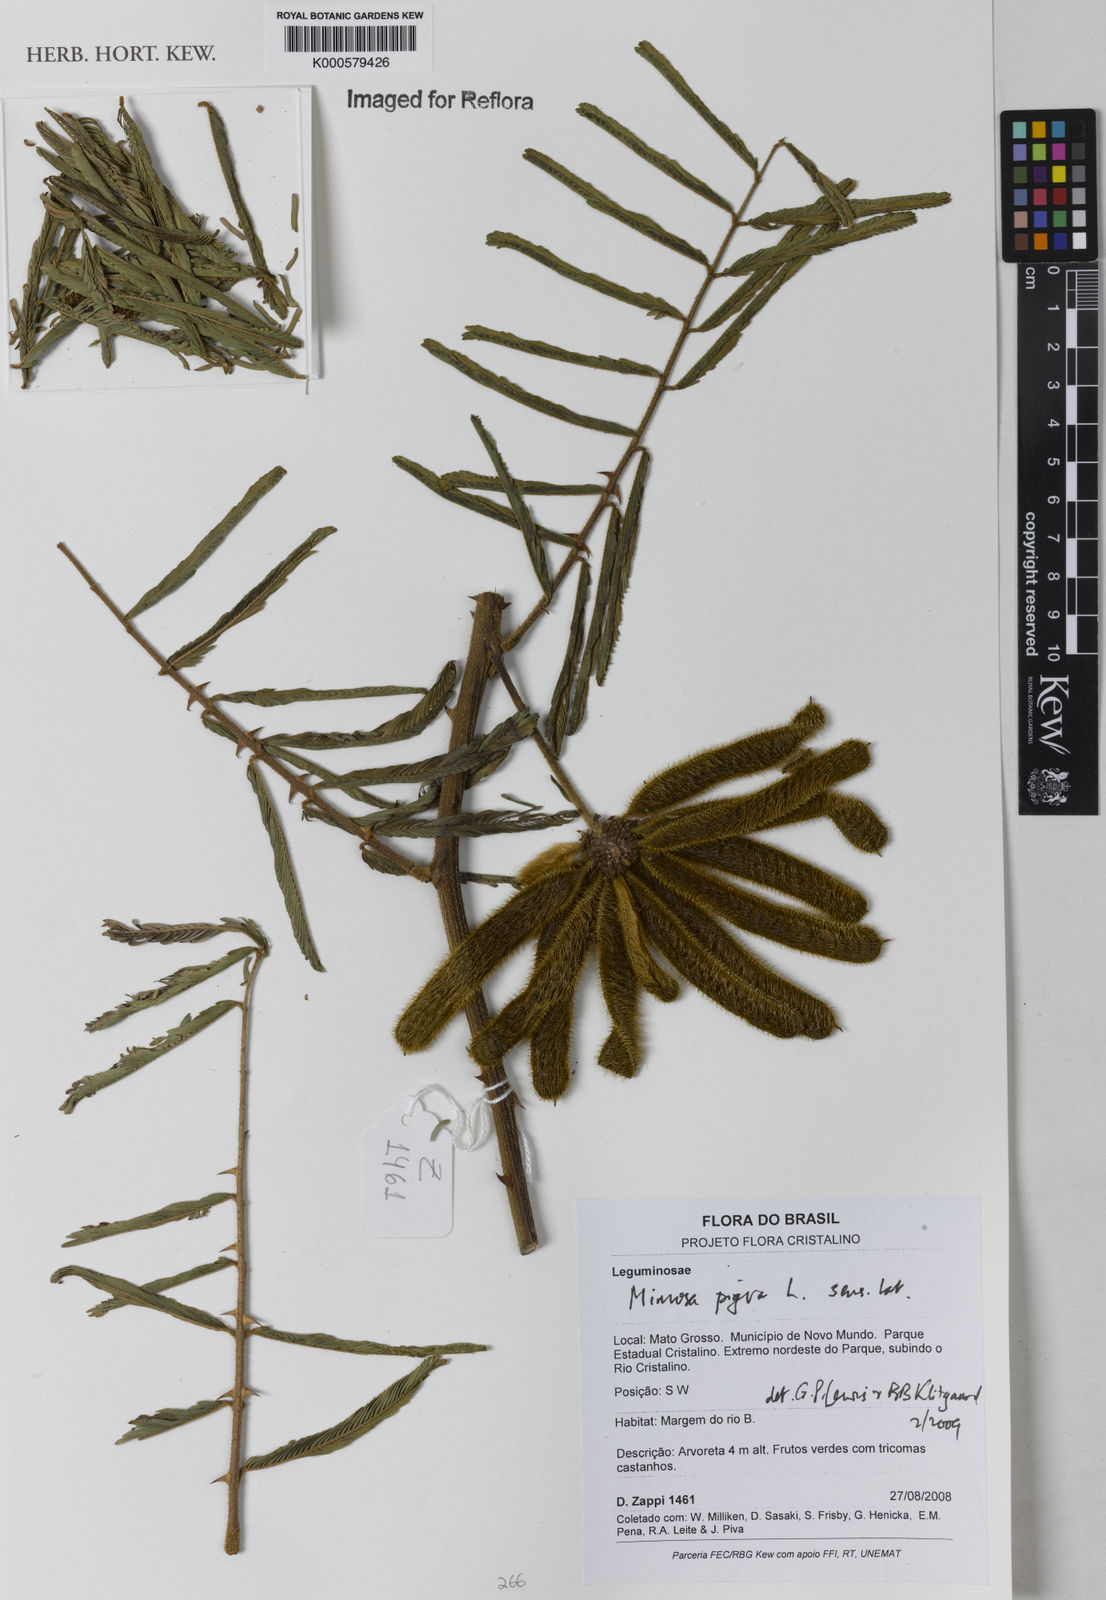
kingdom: Plantae
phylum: Tracheophyta
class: Magnoliopsida
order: Fabales
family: Fabaceae
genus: Mimosa
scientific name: Mimosa pigra
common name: Black mimosa
